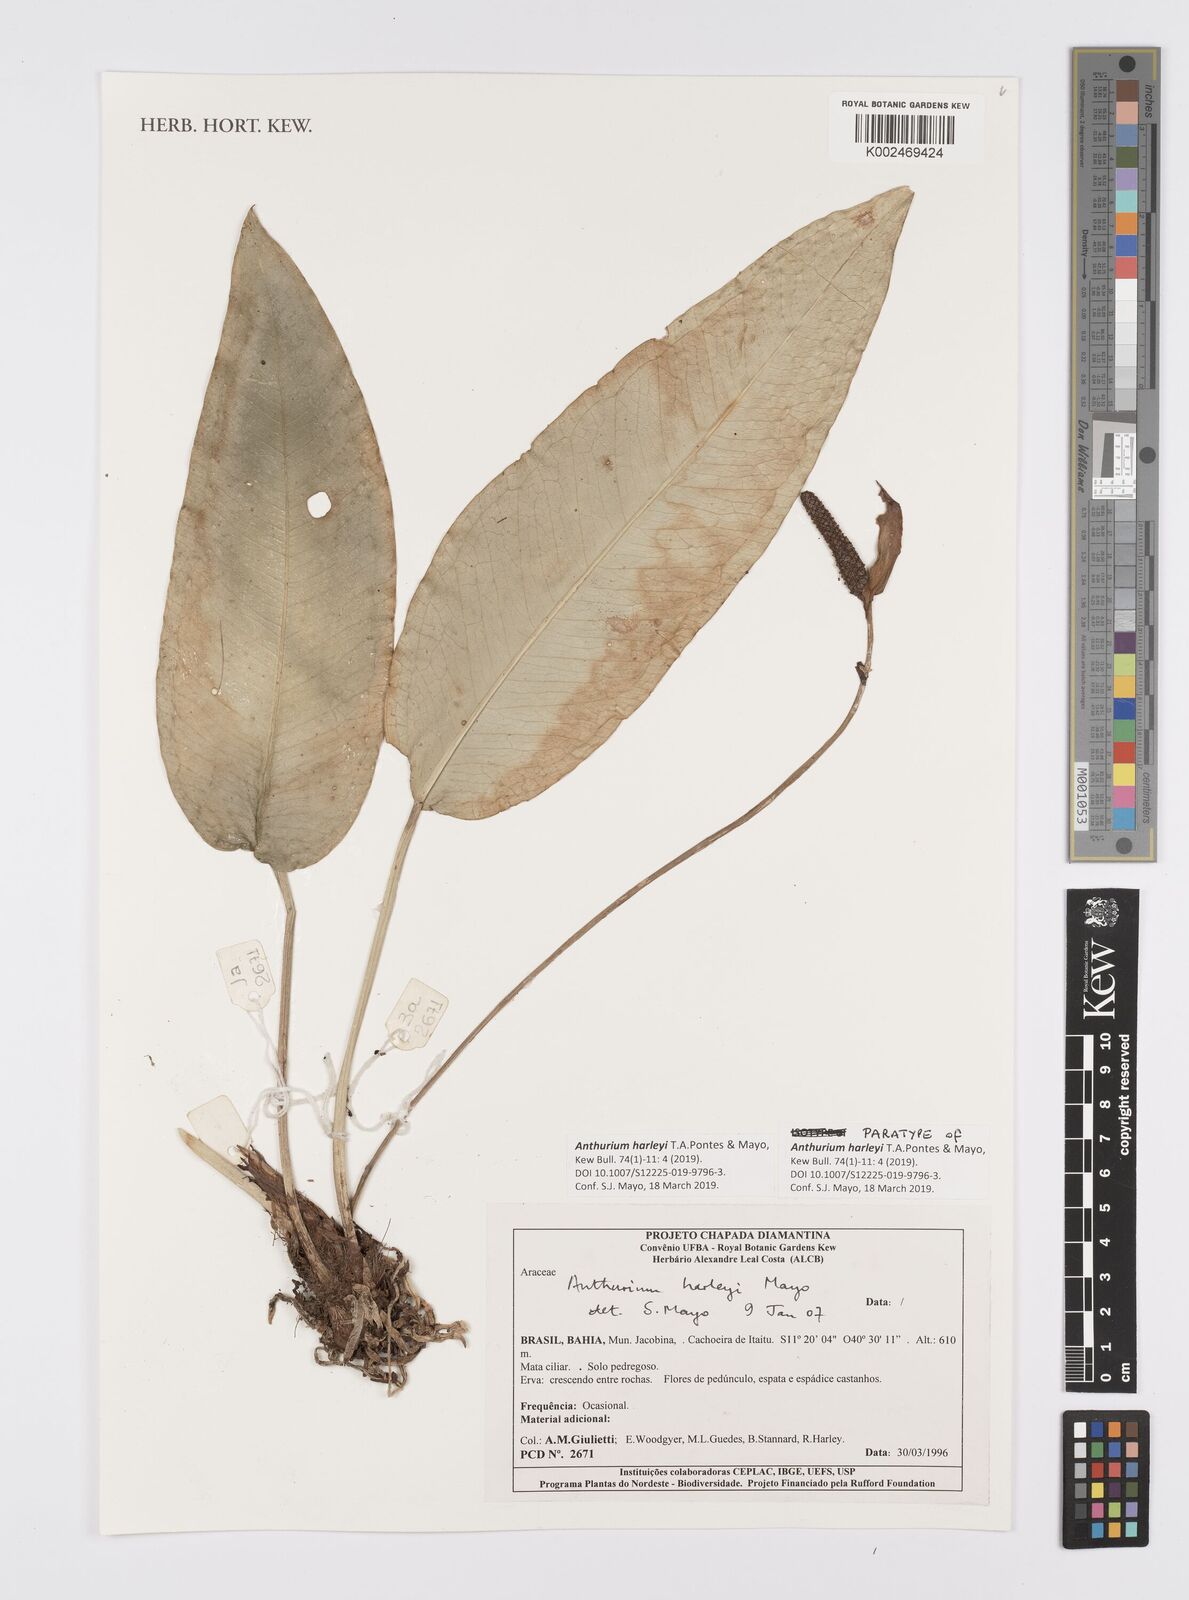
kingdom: Plantae
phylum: Tracheophyta
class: Liliopsida
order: Alismatales
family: Araceae
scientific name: Araceae
